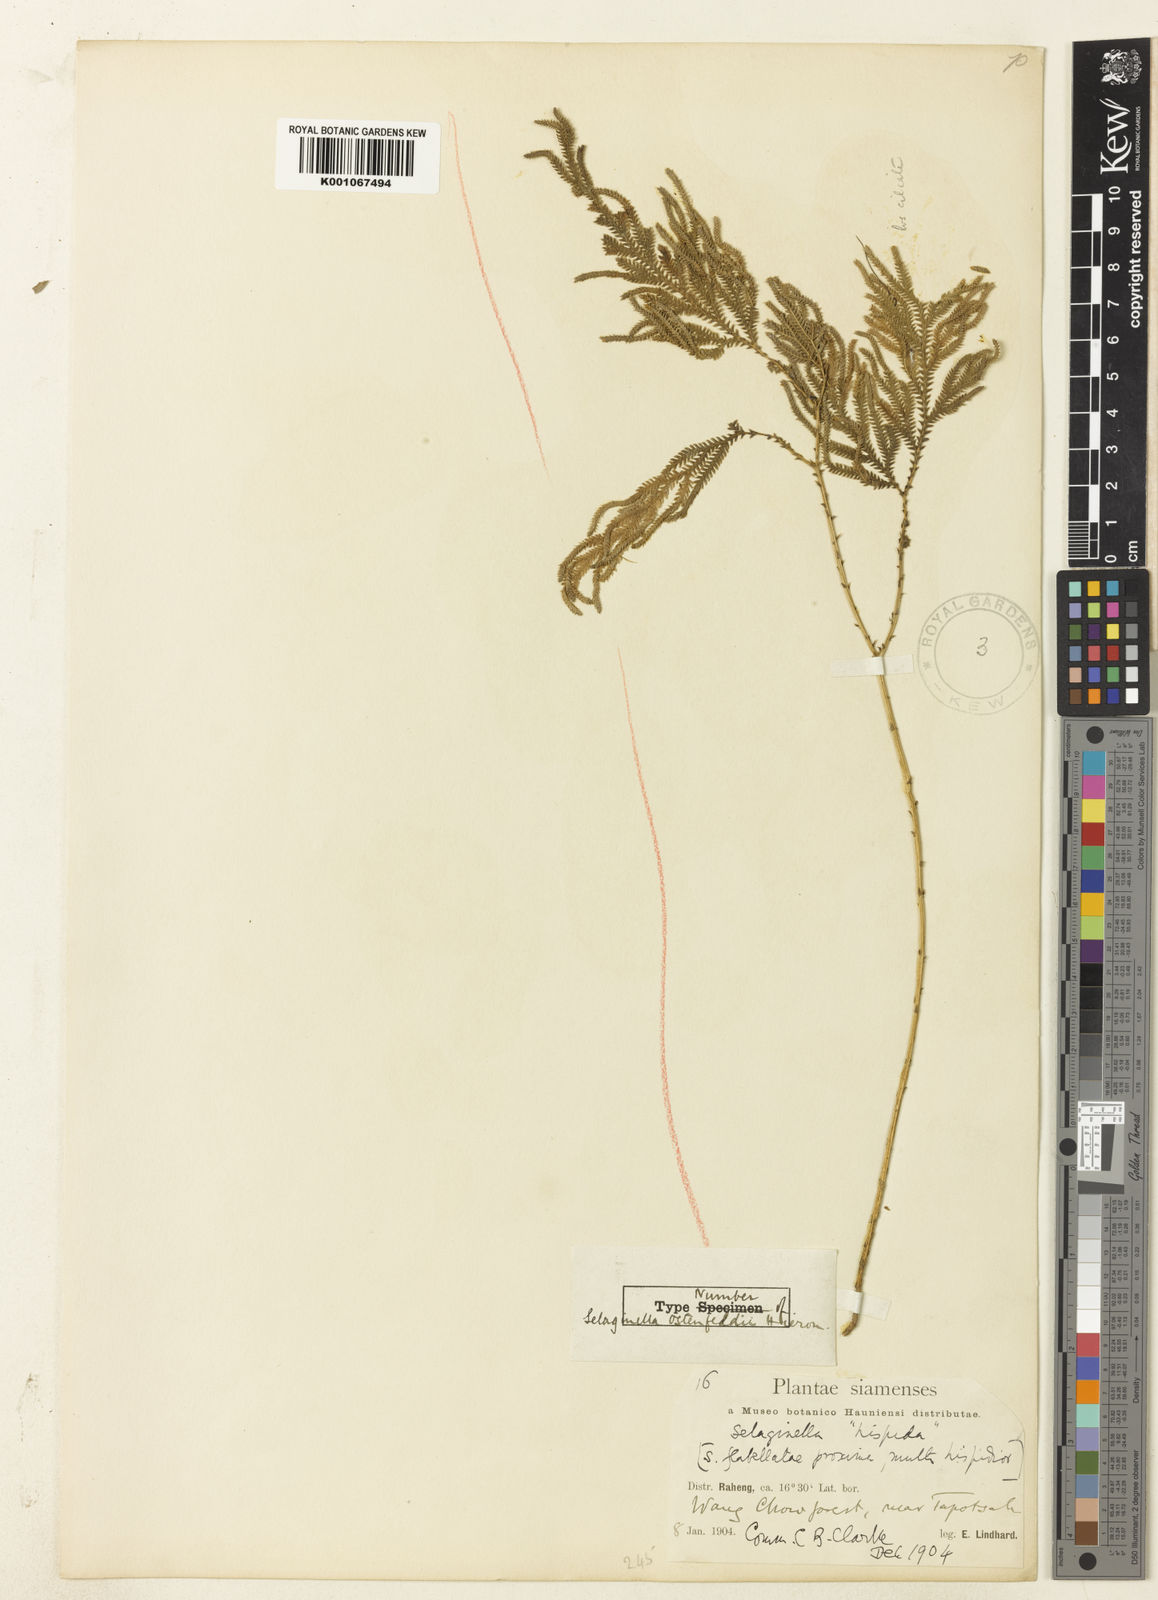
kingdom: Plantae
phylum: Tracheophyta
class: Lycopodiopsida
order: Selaginellales
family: Selaginellaceae
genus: Selaginella
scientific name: Selaginella ostenfeldii
